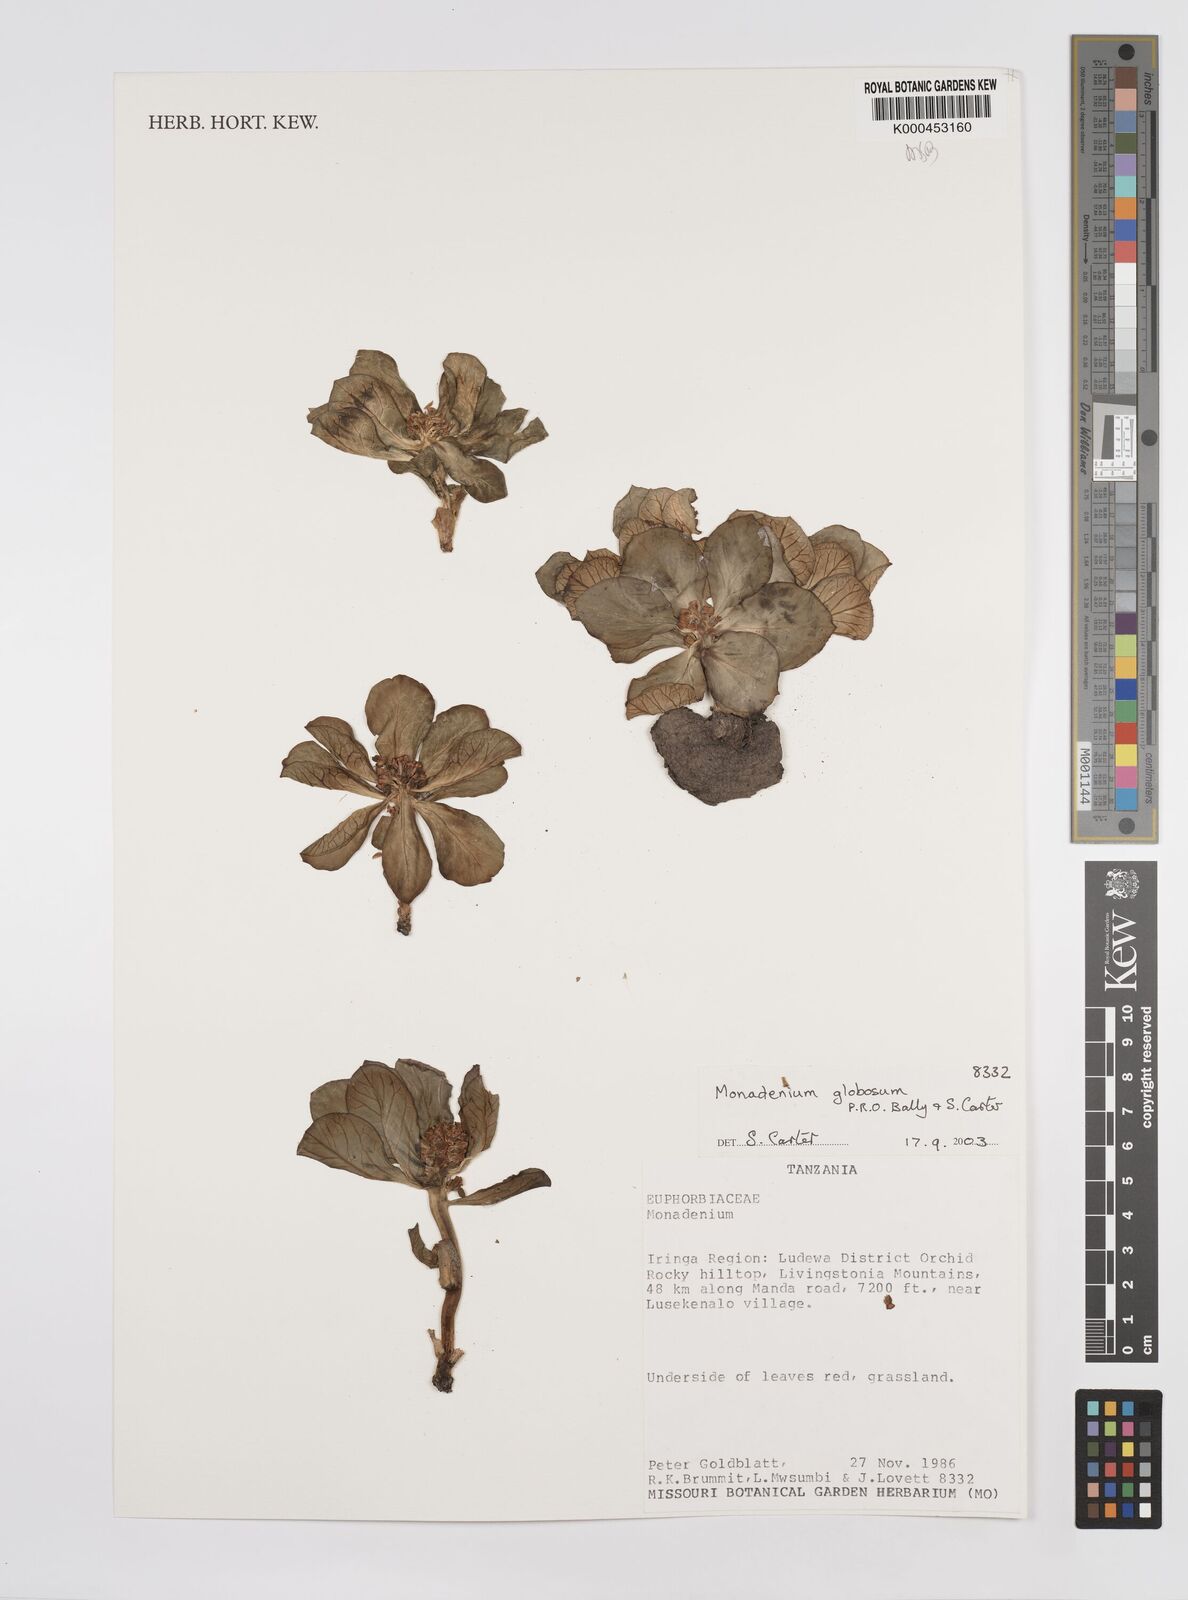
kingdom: Plantae
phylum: Tracheophyta
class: Magnoliopsida
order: Malpighiales
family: Euphorbiaceae
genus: Euphorbia
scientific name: Euphorbia bisglobosa
